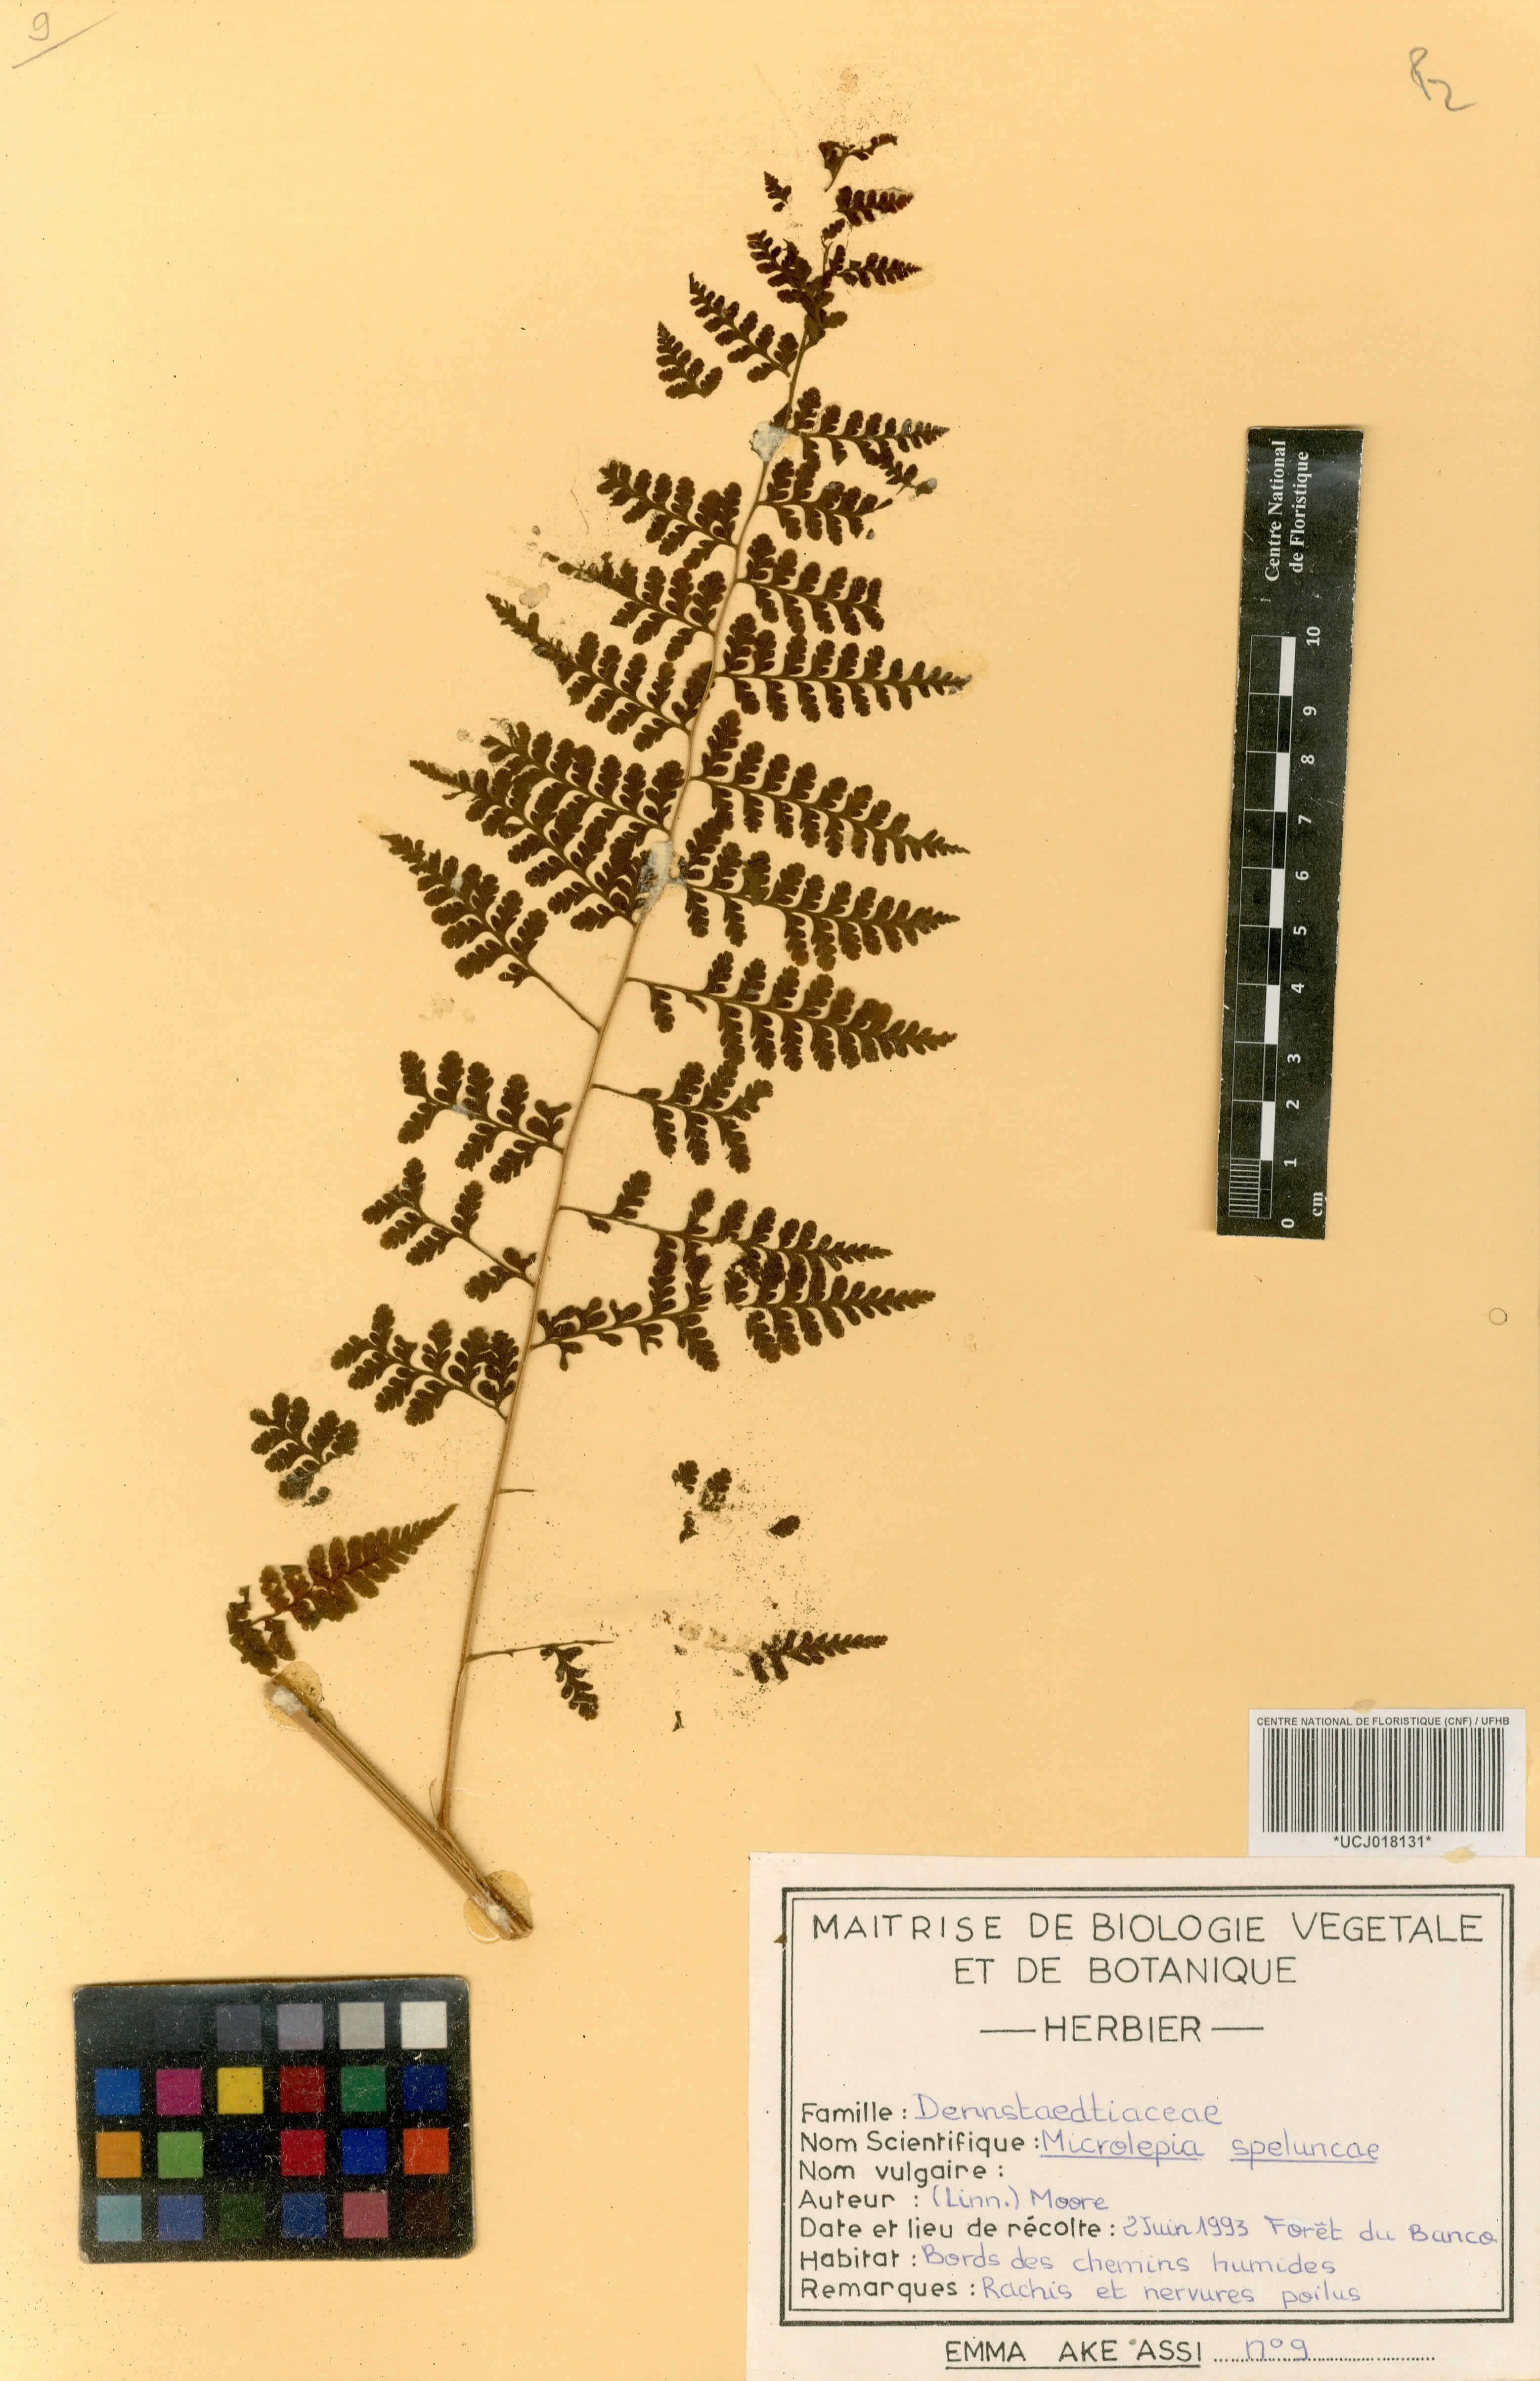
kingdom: Plantae
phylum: Tracheophyta
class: Polypodiopsida
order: Polypodiales
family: Dennstaedtiaceae
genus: Microlepia
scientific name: Microlepia speluncae
